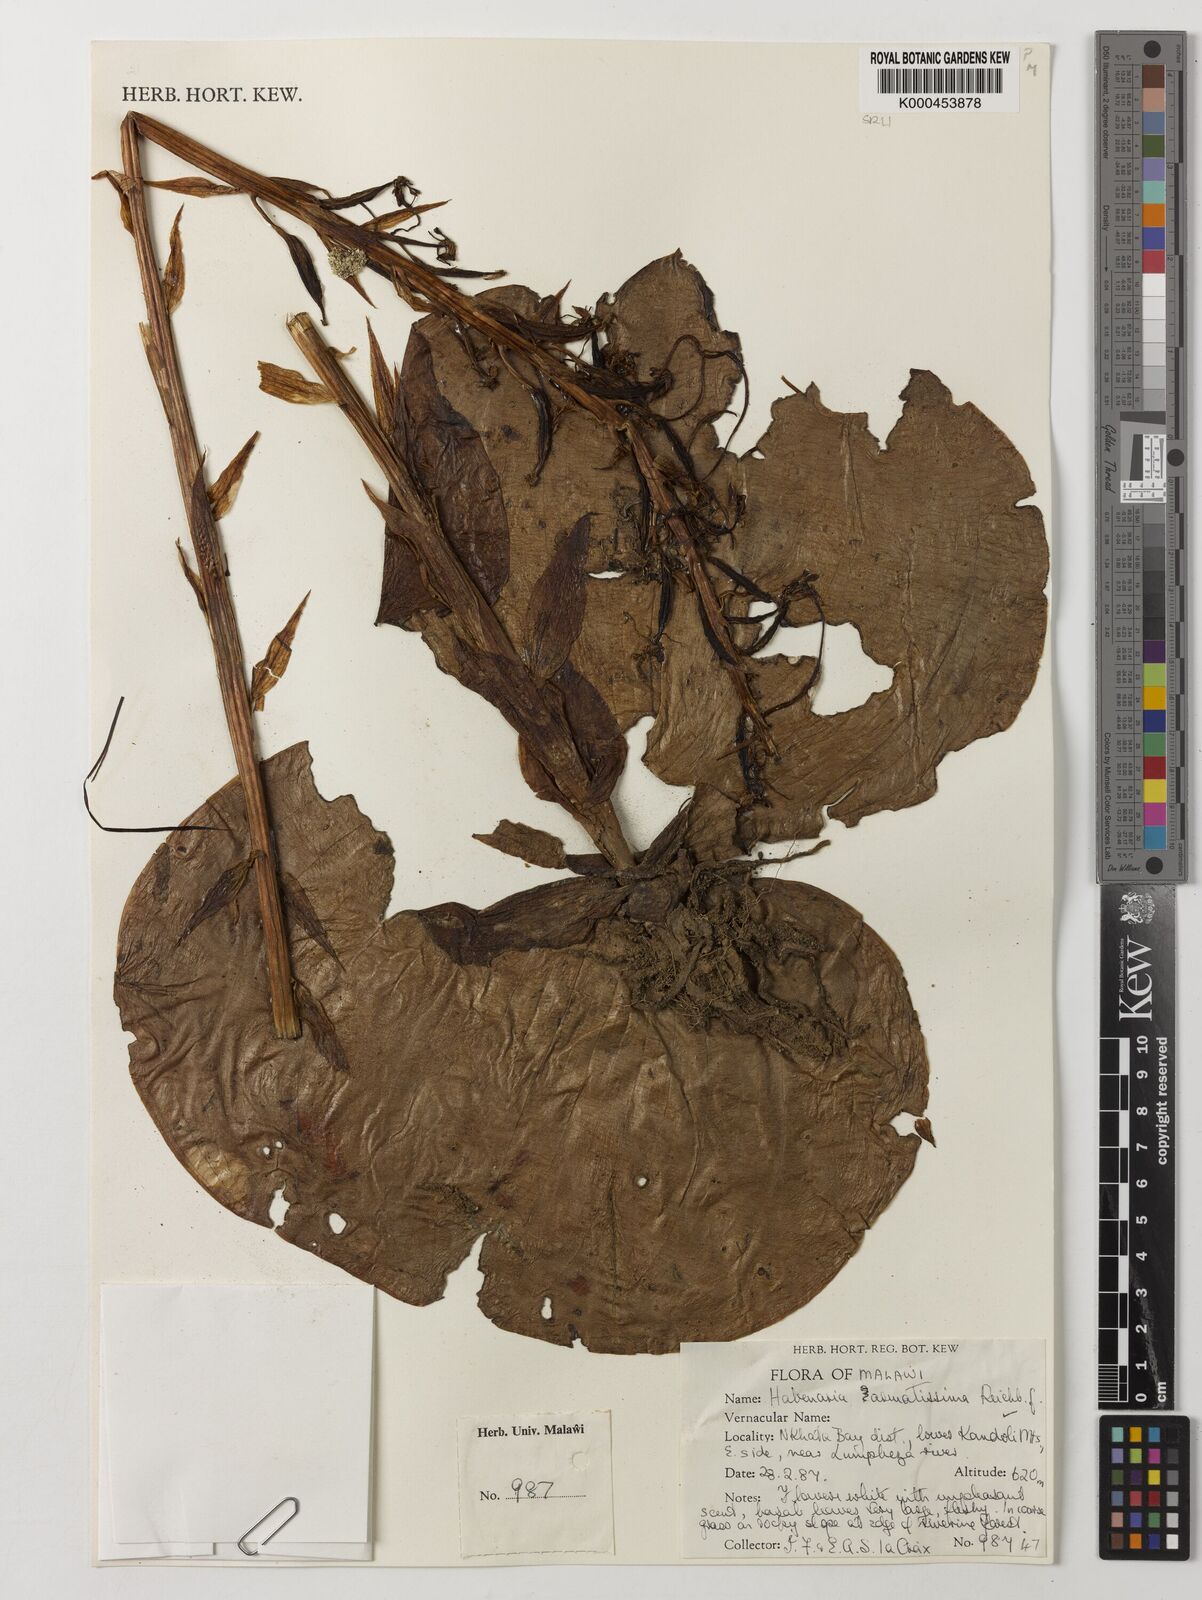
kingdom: Plantae
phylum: Tracheophyta
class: Liliopsida
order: Asparagales
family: Orchidaceae
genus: Habenaria
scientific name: Habenaria armatissima
